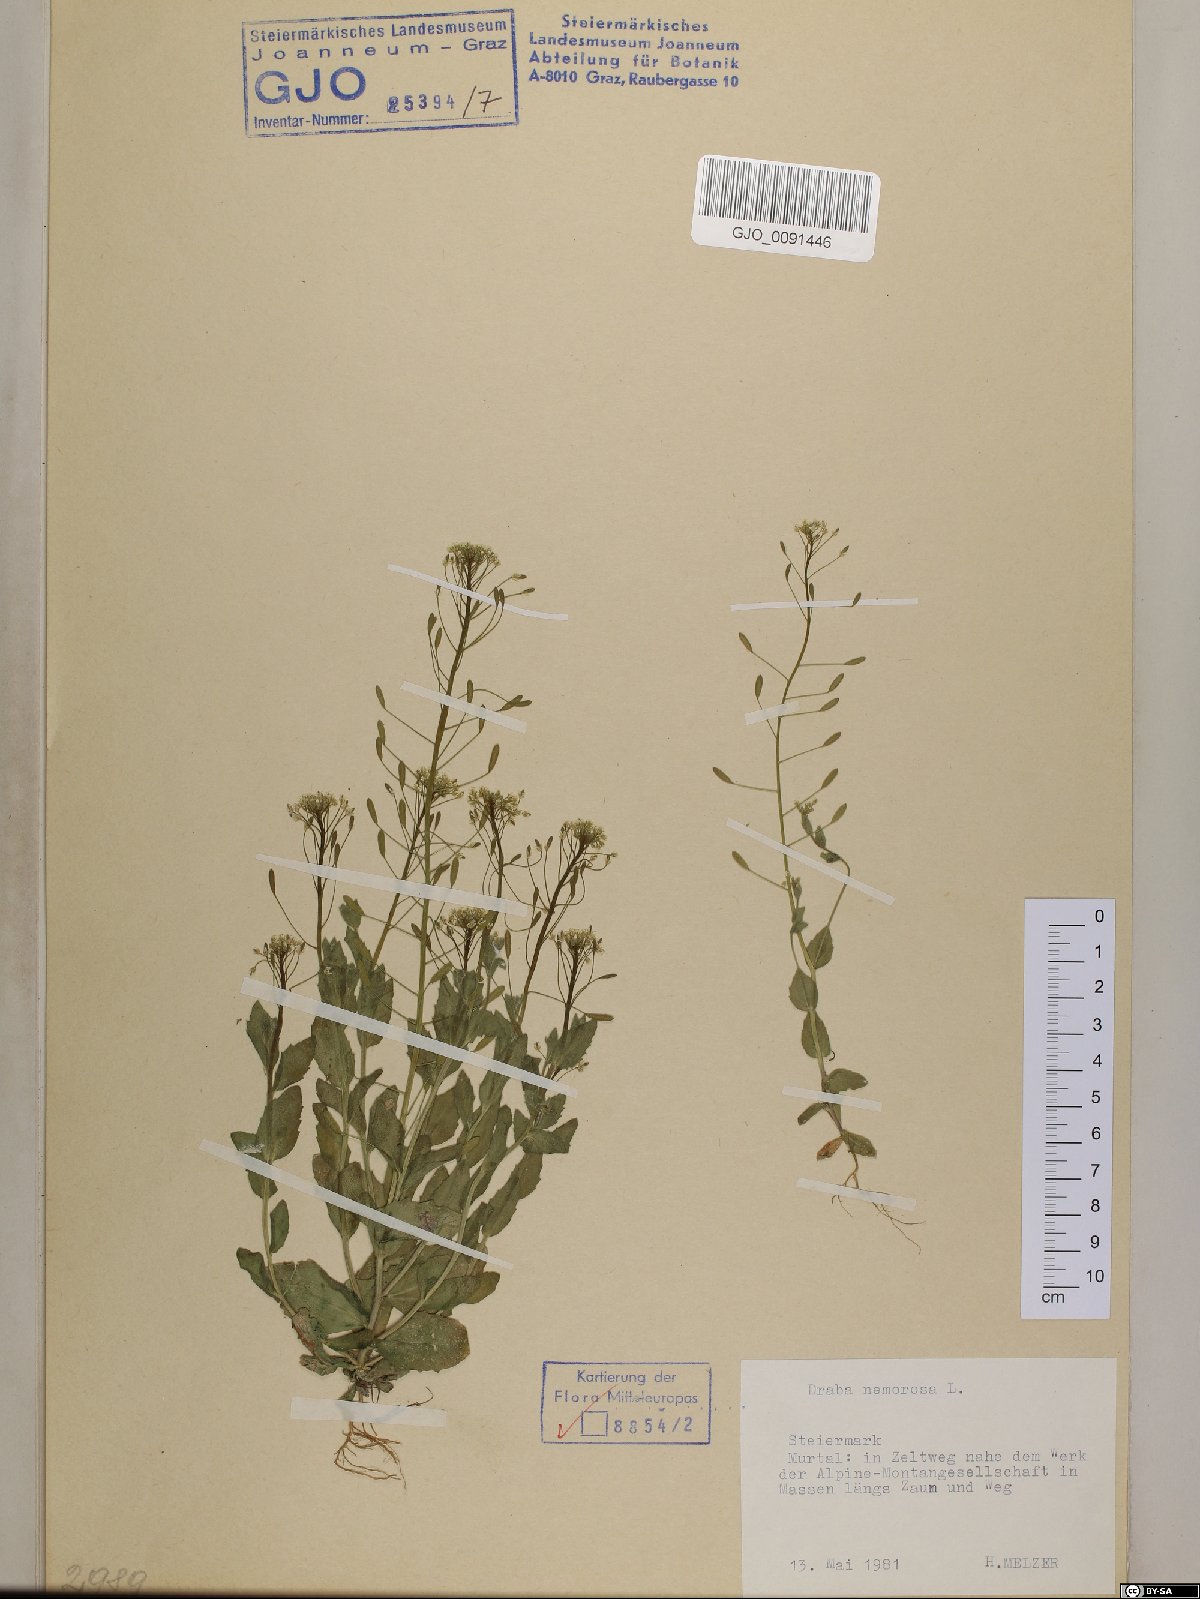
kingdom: Plantae
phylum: Tracheophyta
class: Magnoliopsida
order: Brassicales
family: Brassicaceae
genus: Draba
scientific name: Draba nemorosa
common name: Wood whitlow-grass
